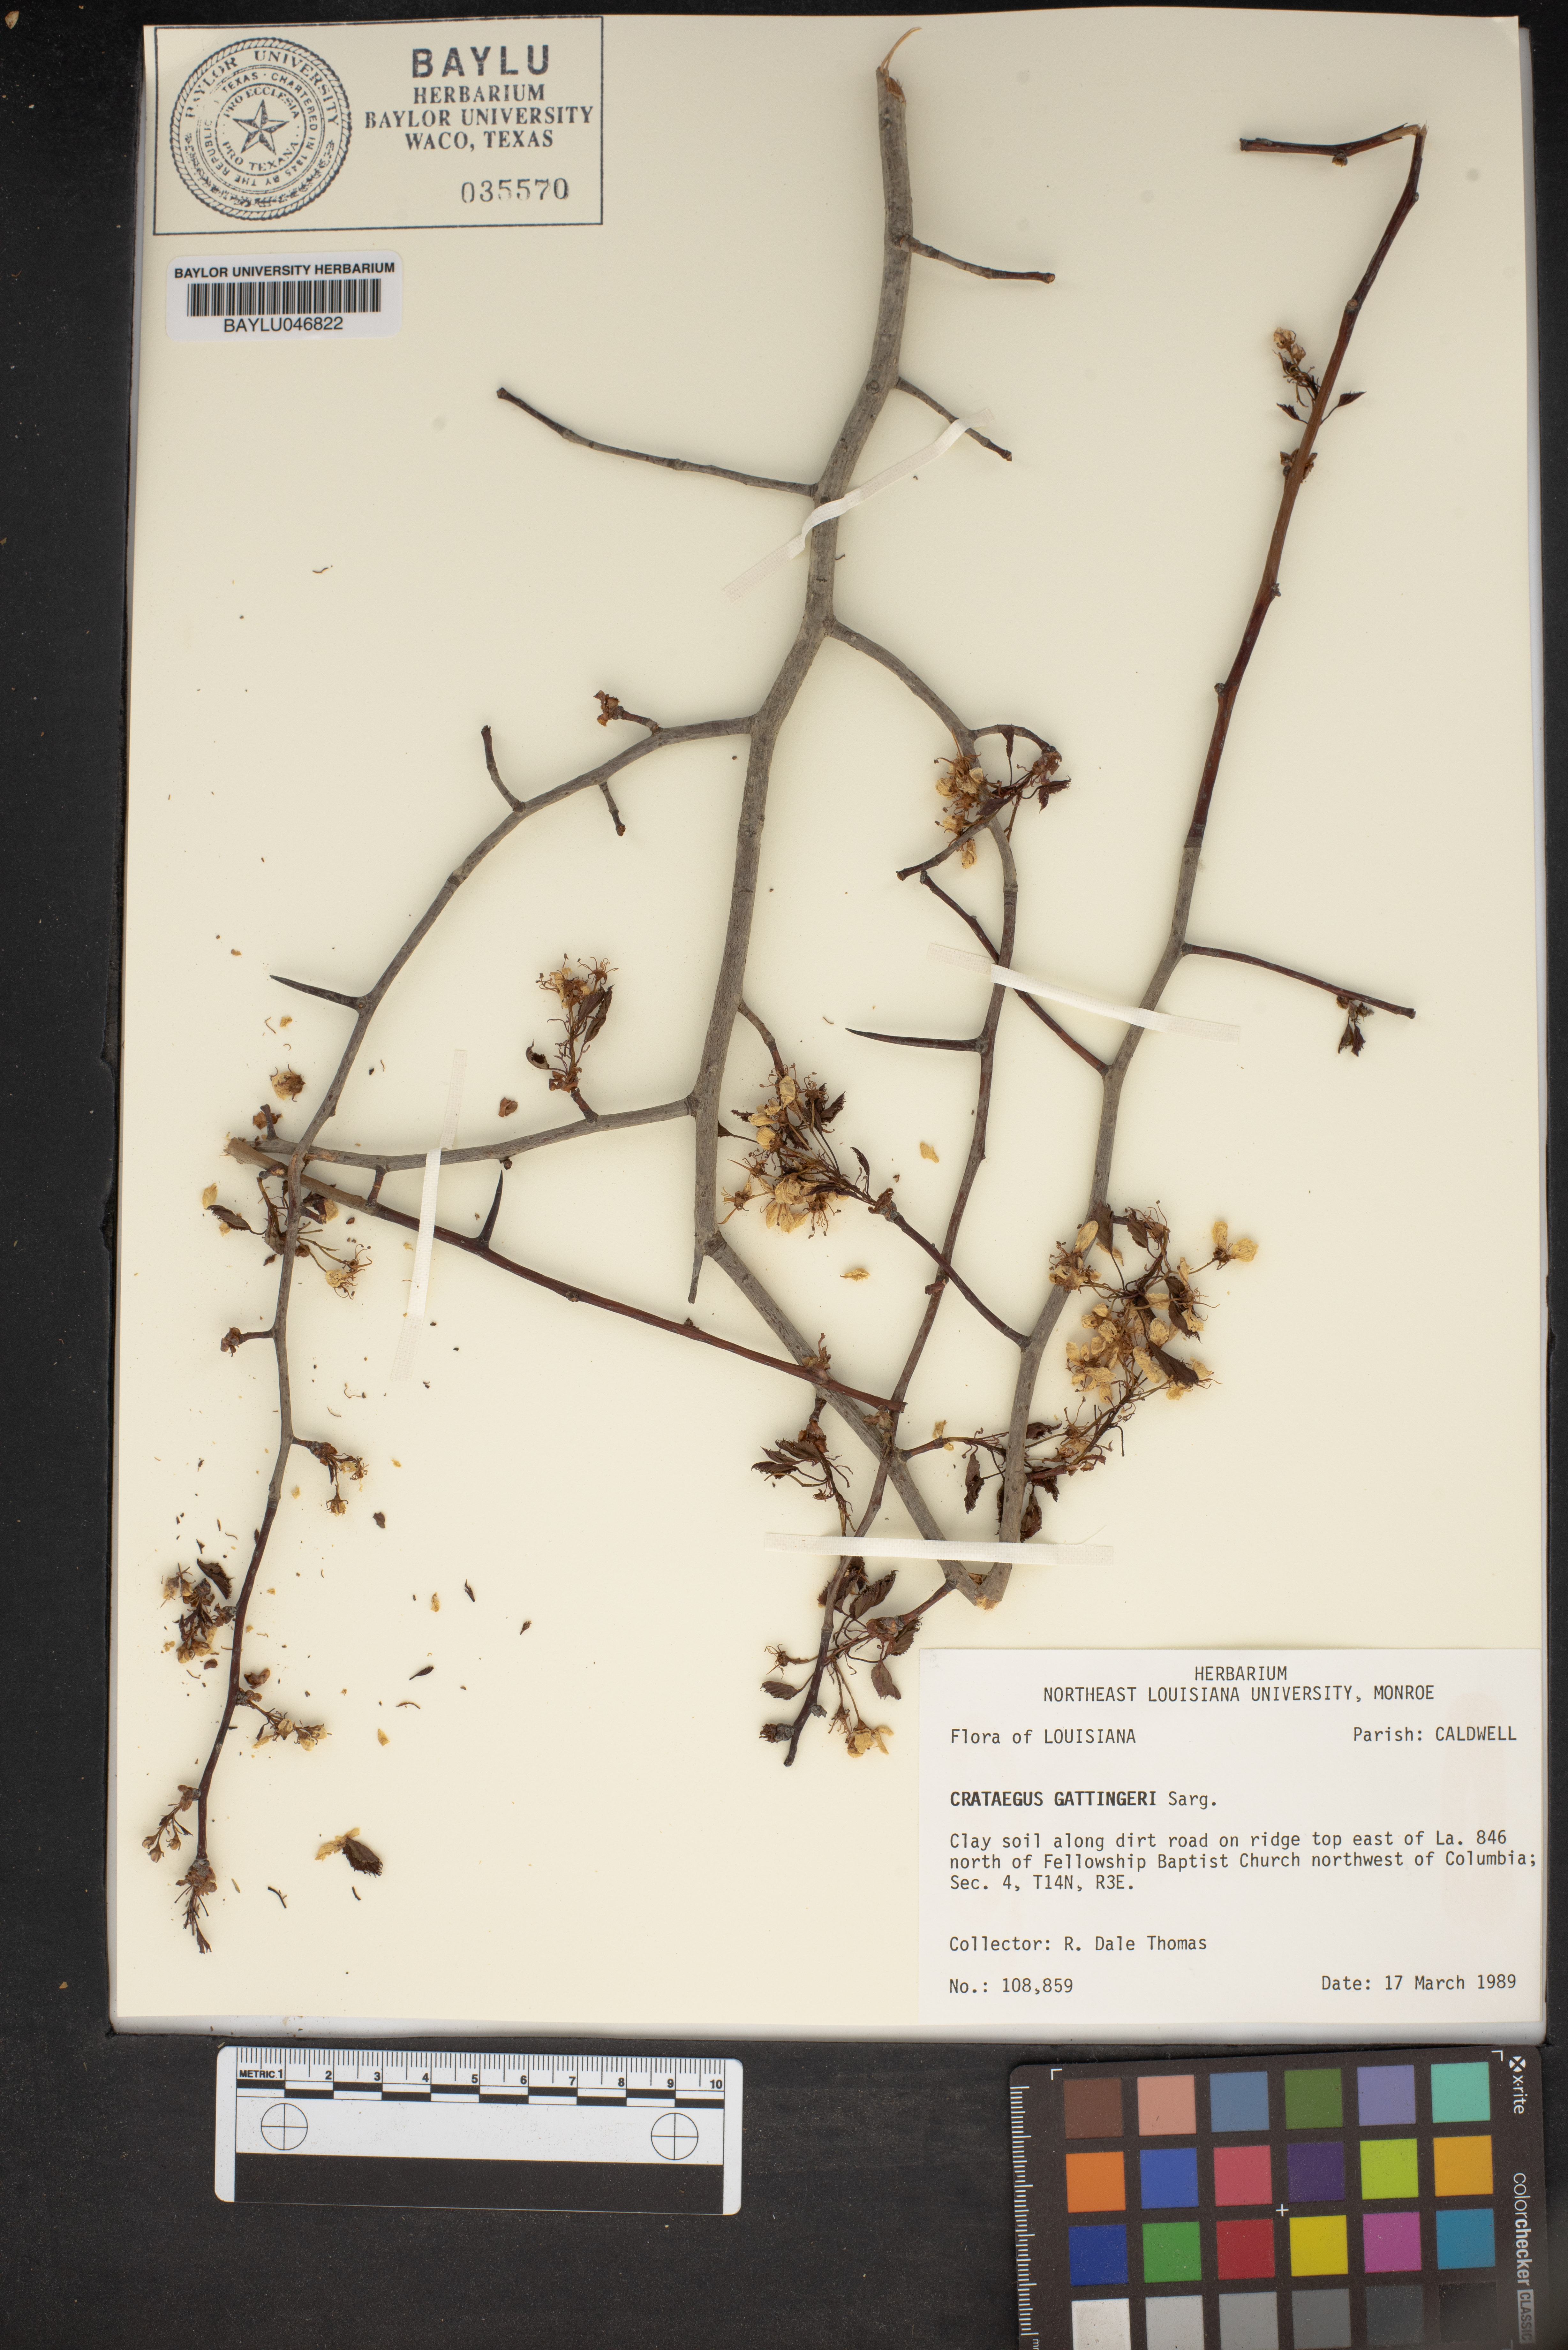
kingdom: Plantae
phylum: Tracheophyta
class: Magnoliopsida
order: Rosales
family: Rosaceae
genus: Crataegus
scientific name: Crataegus gattingeri
